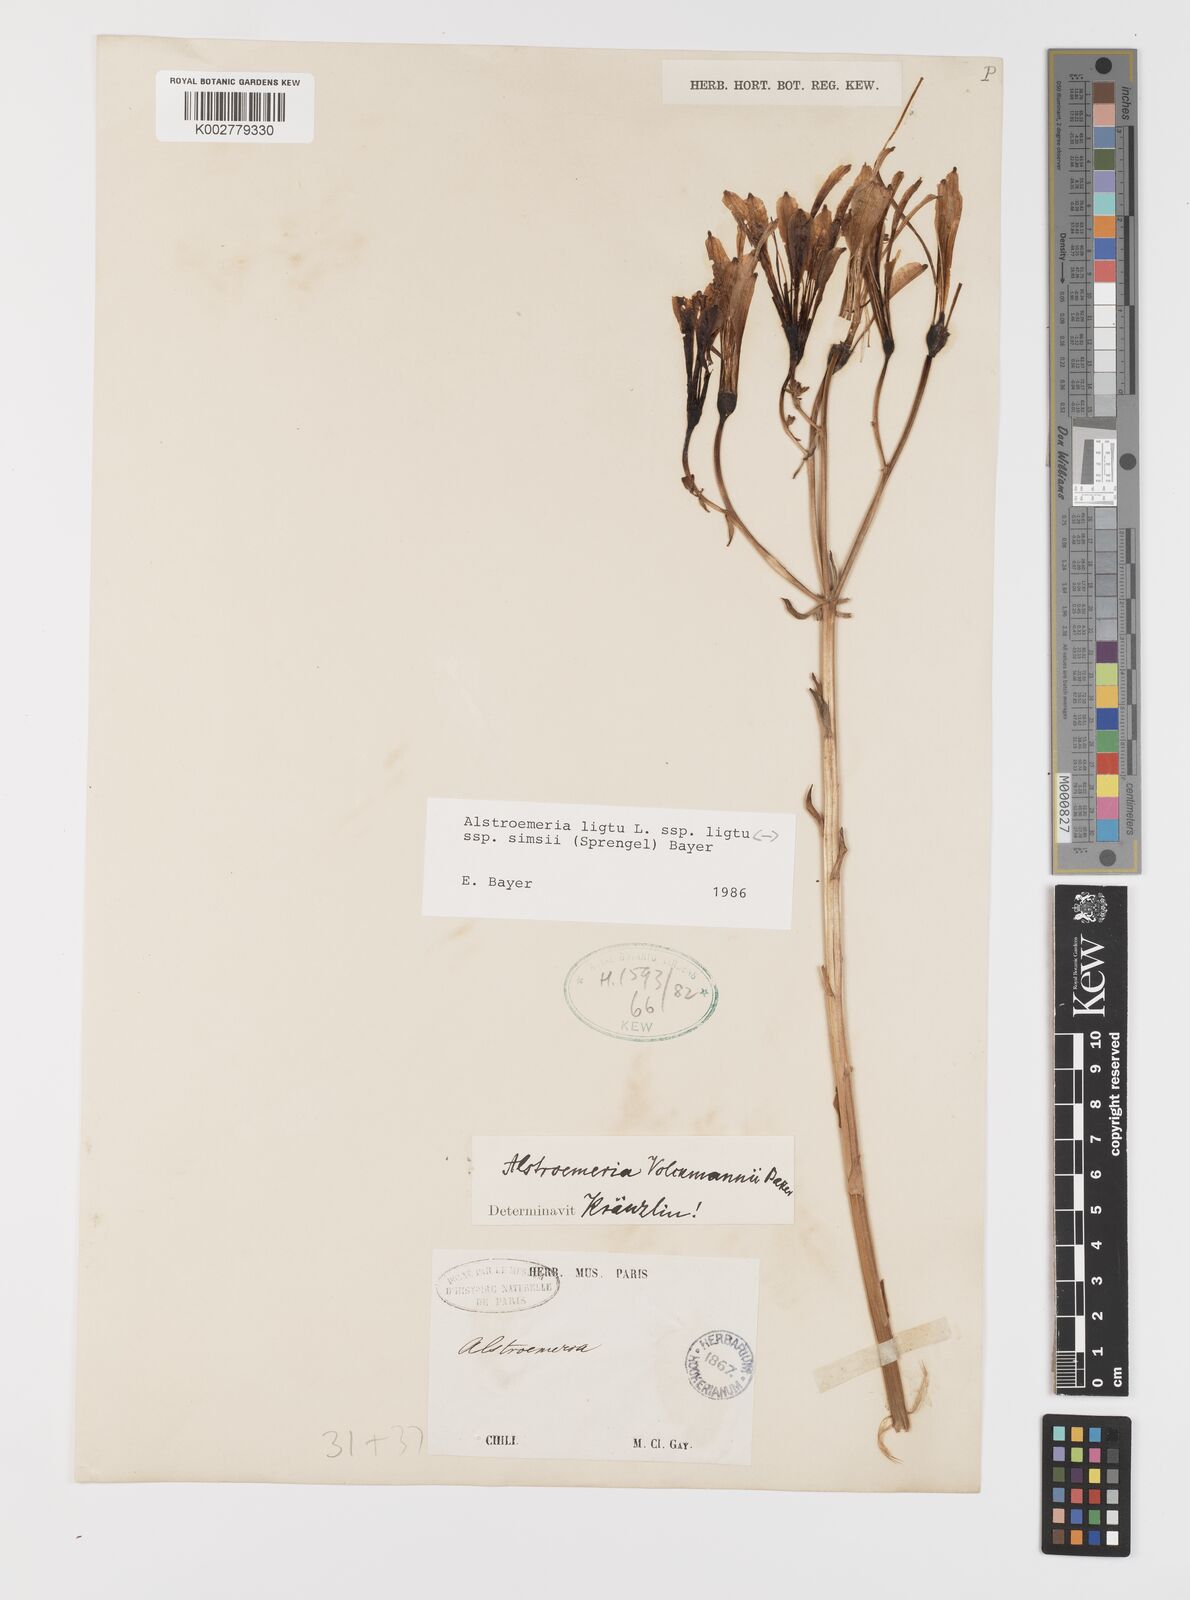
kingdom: Plantae
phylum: Tracheophyta
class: Liliopsida
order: Liliales
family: Alstroemeriaceae
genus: Alstroemeria
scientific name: Alstroemeria ligtu
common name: St. martin's-flower
